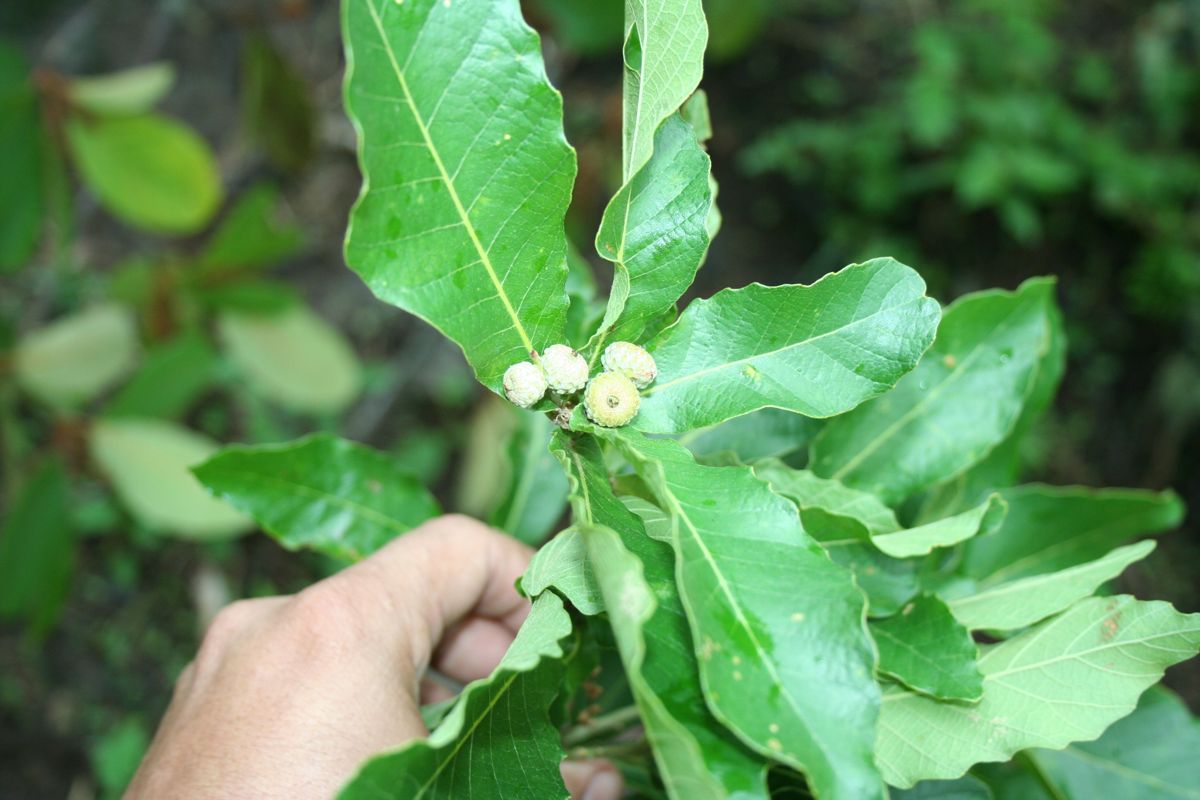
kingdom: Plantae
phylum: Tracheophyta
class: Magnoliopsida
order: Fagales
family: Fagaceae
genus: Quercus
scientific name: Quercus segoviensis
